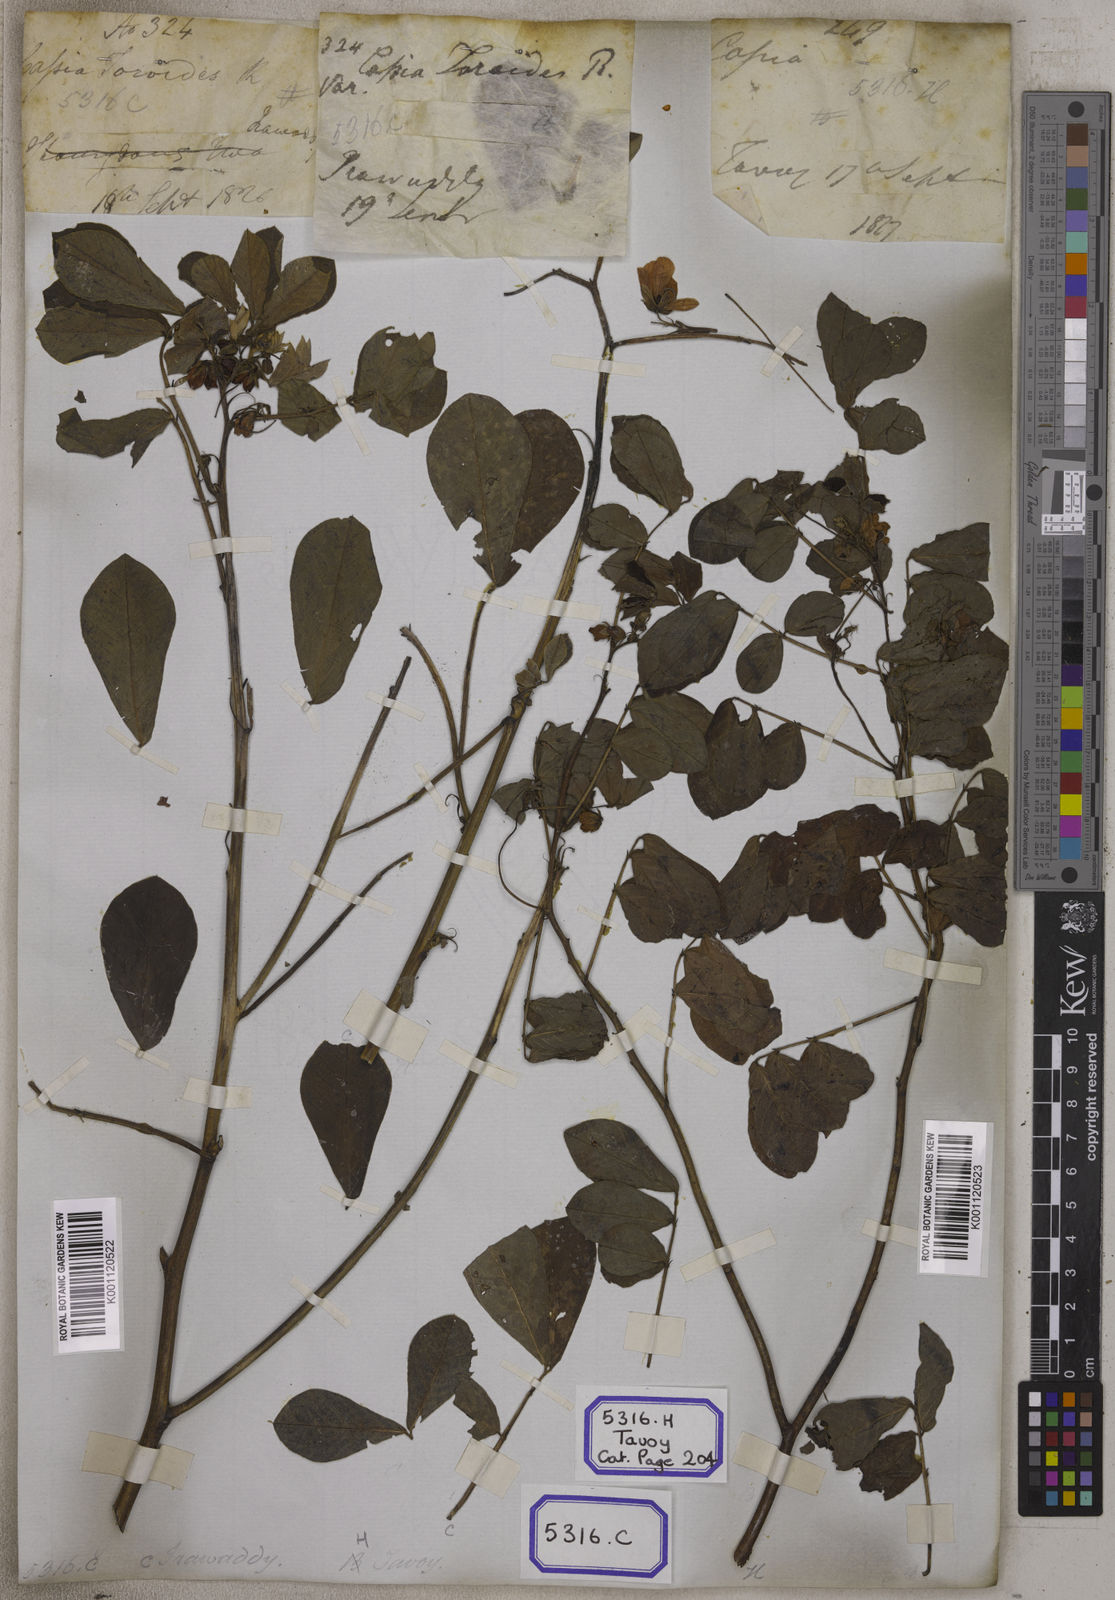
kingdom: Plantae
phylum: Tracheophyta
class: Magnoliopsida
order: Fabales
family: Fabaceae
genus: Senna
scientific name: Senna tora
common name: Sickle senna
